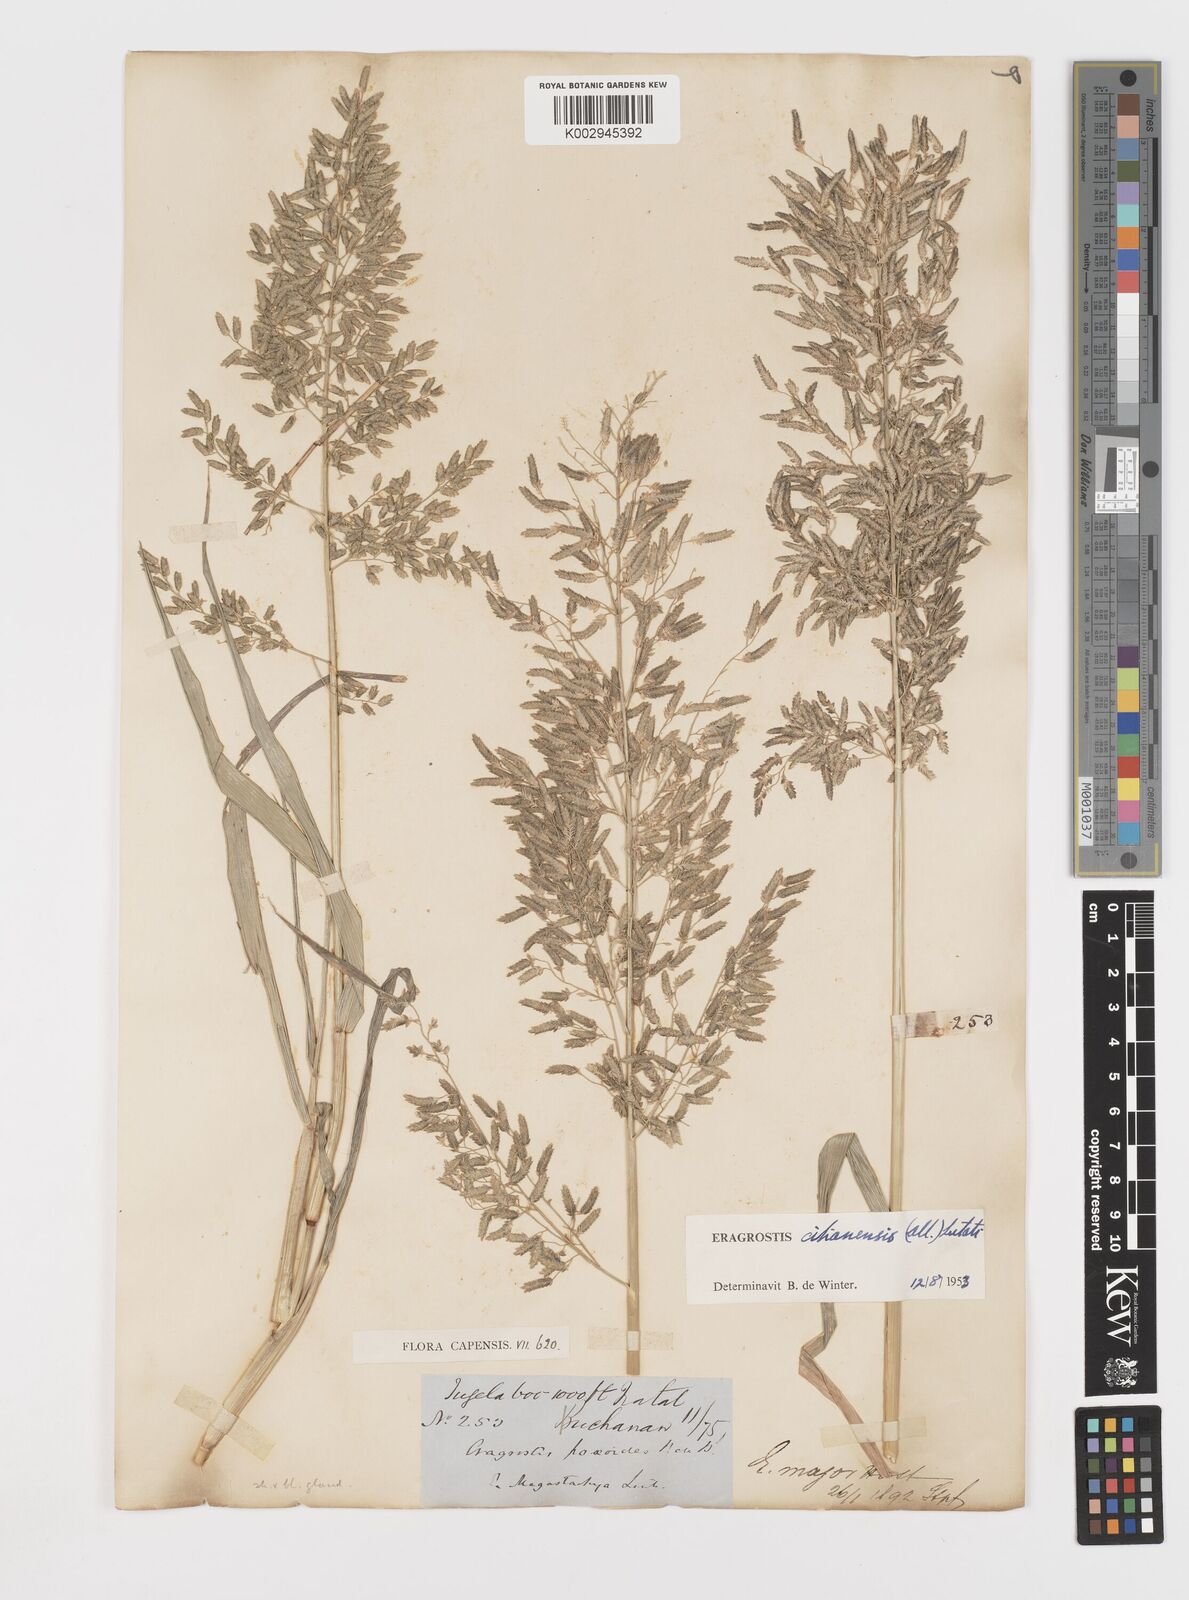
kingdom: Plantae
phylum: Tracheophyta
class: Liliopsida
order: Poales
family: Poaceae
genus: Eragrostis
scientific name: Eragrostis cilianensis
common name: Stinkgrass
